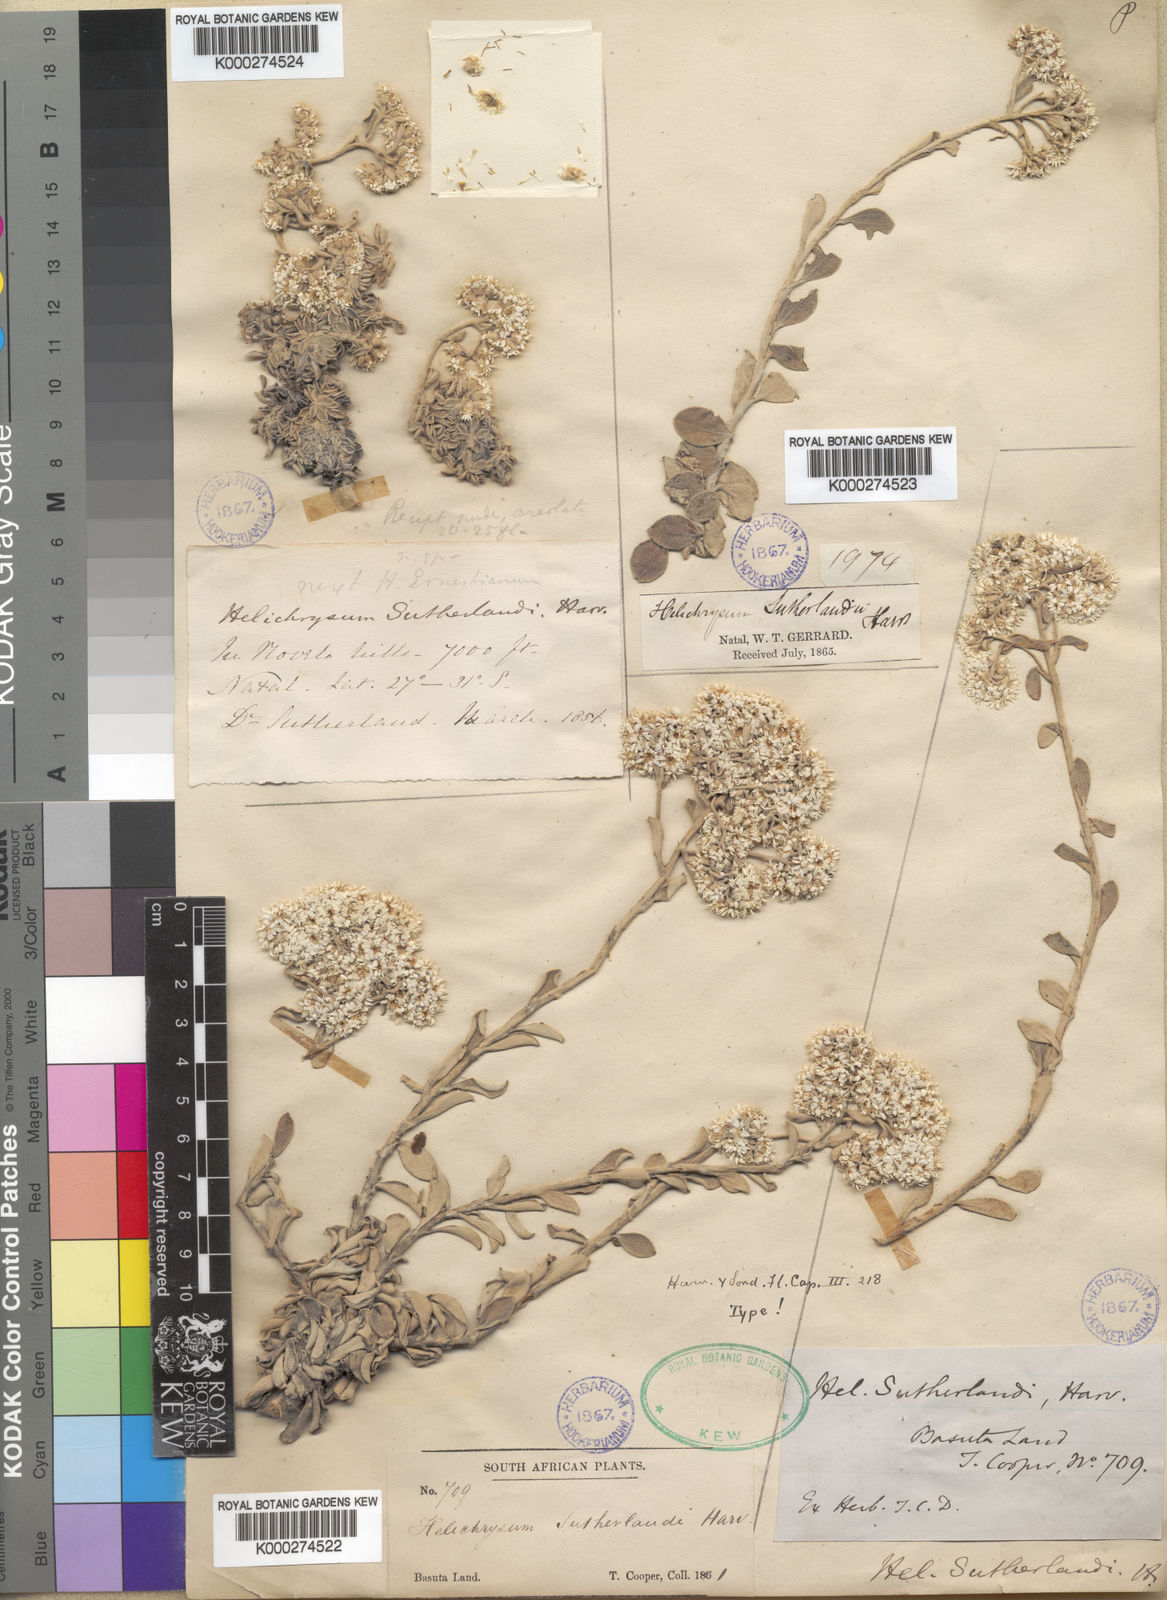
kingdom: Plantae
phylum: Tracheophyta
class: Magnoliopsida
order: Asterales
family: Asteraceae
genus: Helichrysum
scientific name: Helichrysum sutherlandii
